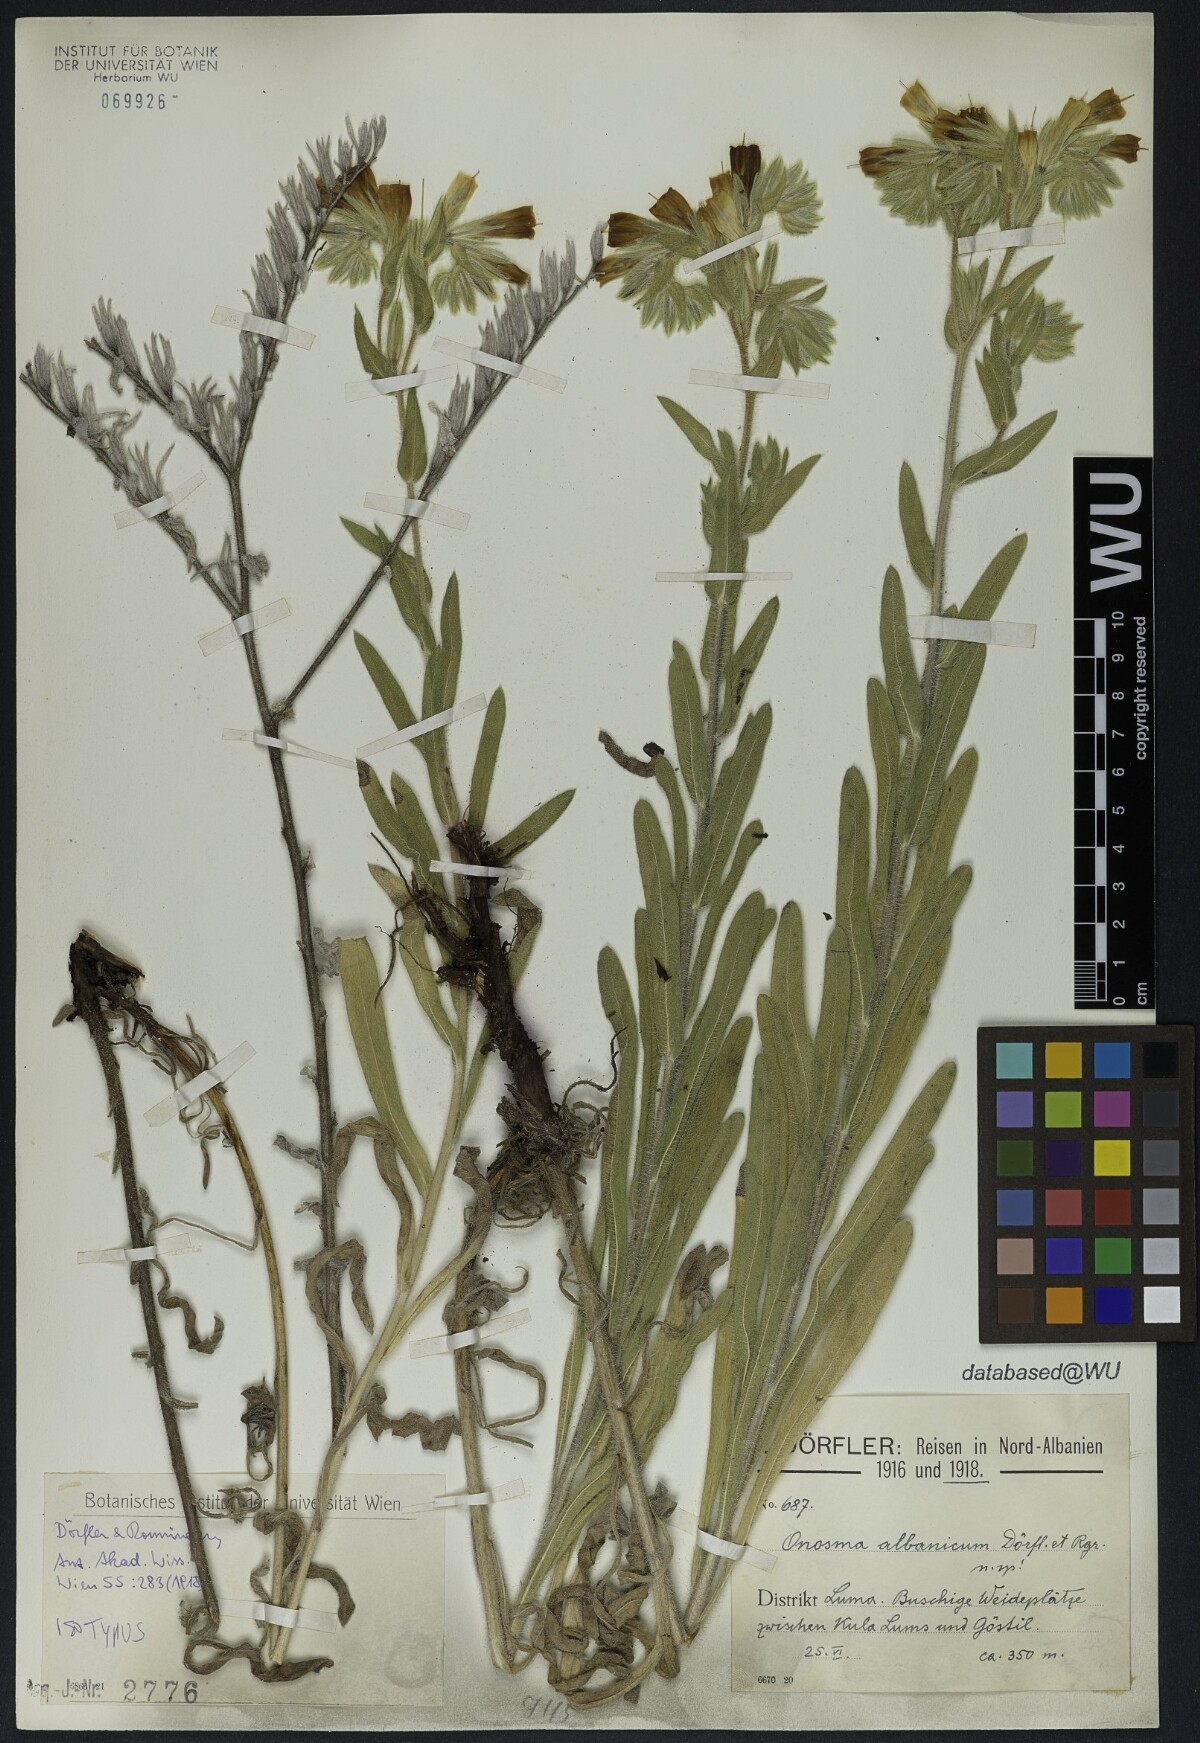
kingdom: Plantae
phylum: Tracheophyta
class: Magnoliopsida
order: Boraginales
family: Boraginaceae
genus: Onosma
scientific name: Onosma pseudoarenaria
